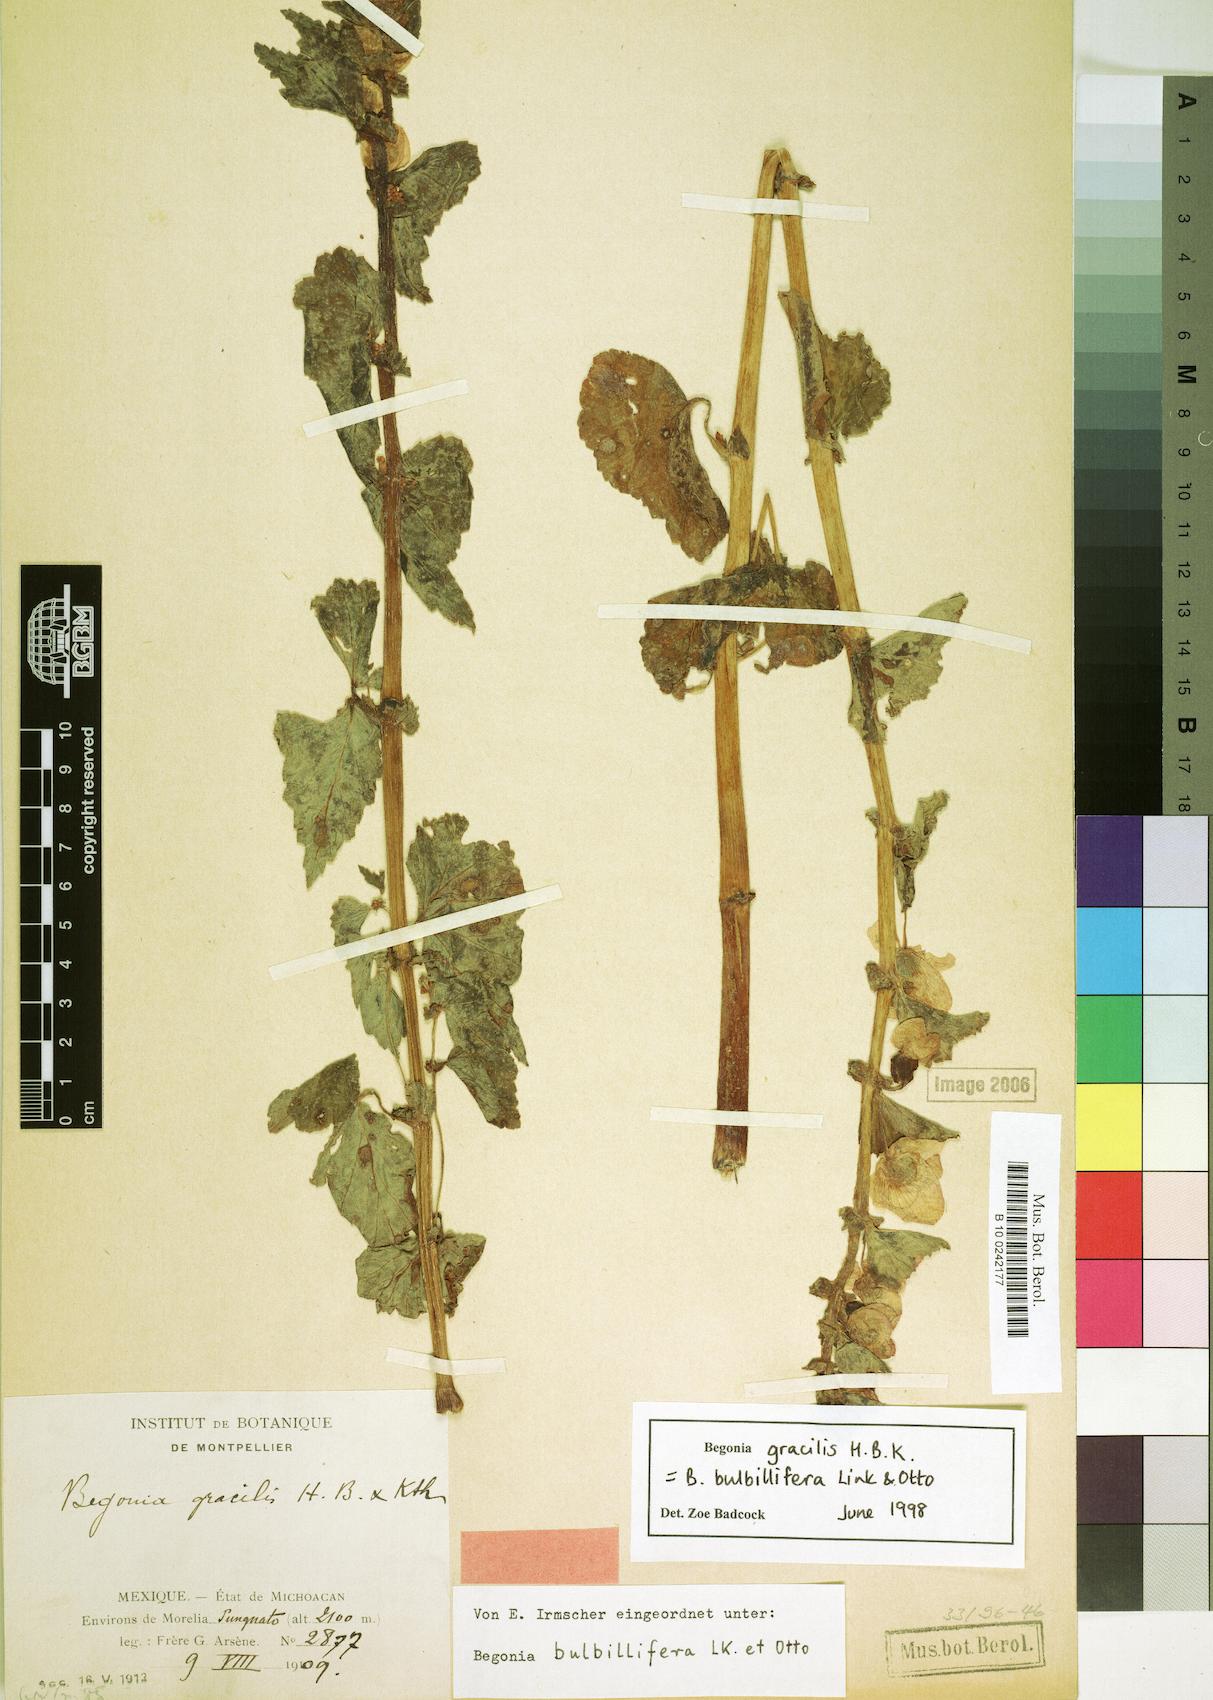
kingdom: Plantae
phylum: Tracheophyta
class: Magnoliopsida
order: Cucurbitales
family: Begoniaceae
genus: Begonia
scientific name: Begonia gracilis
